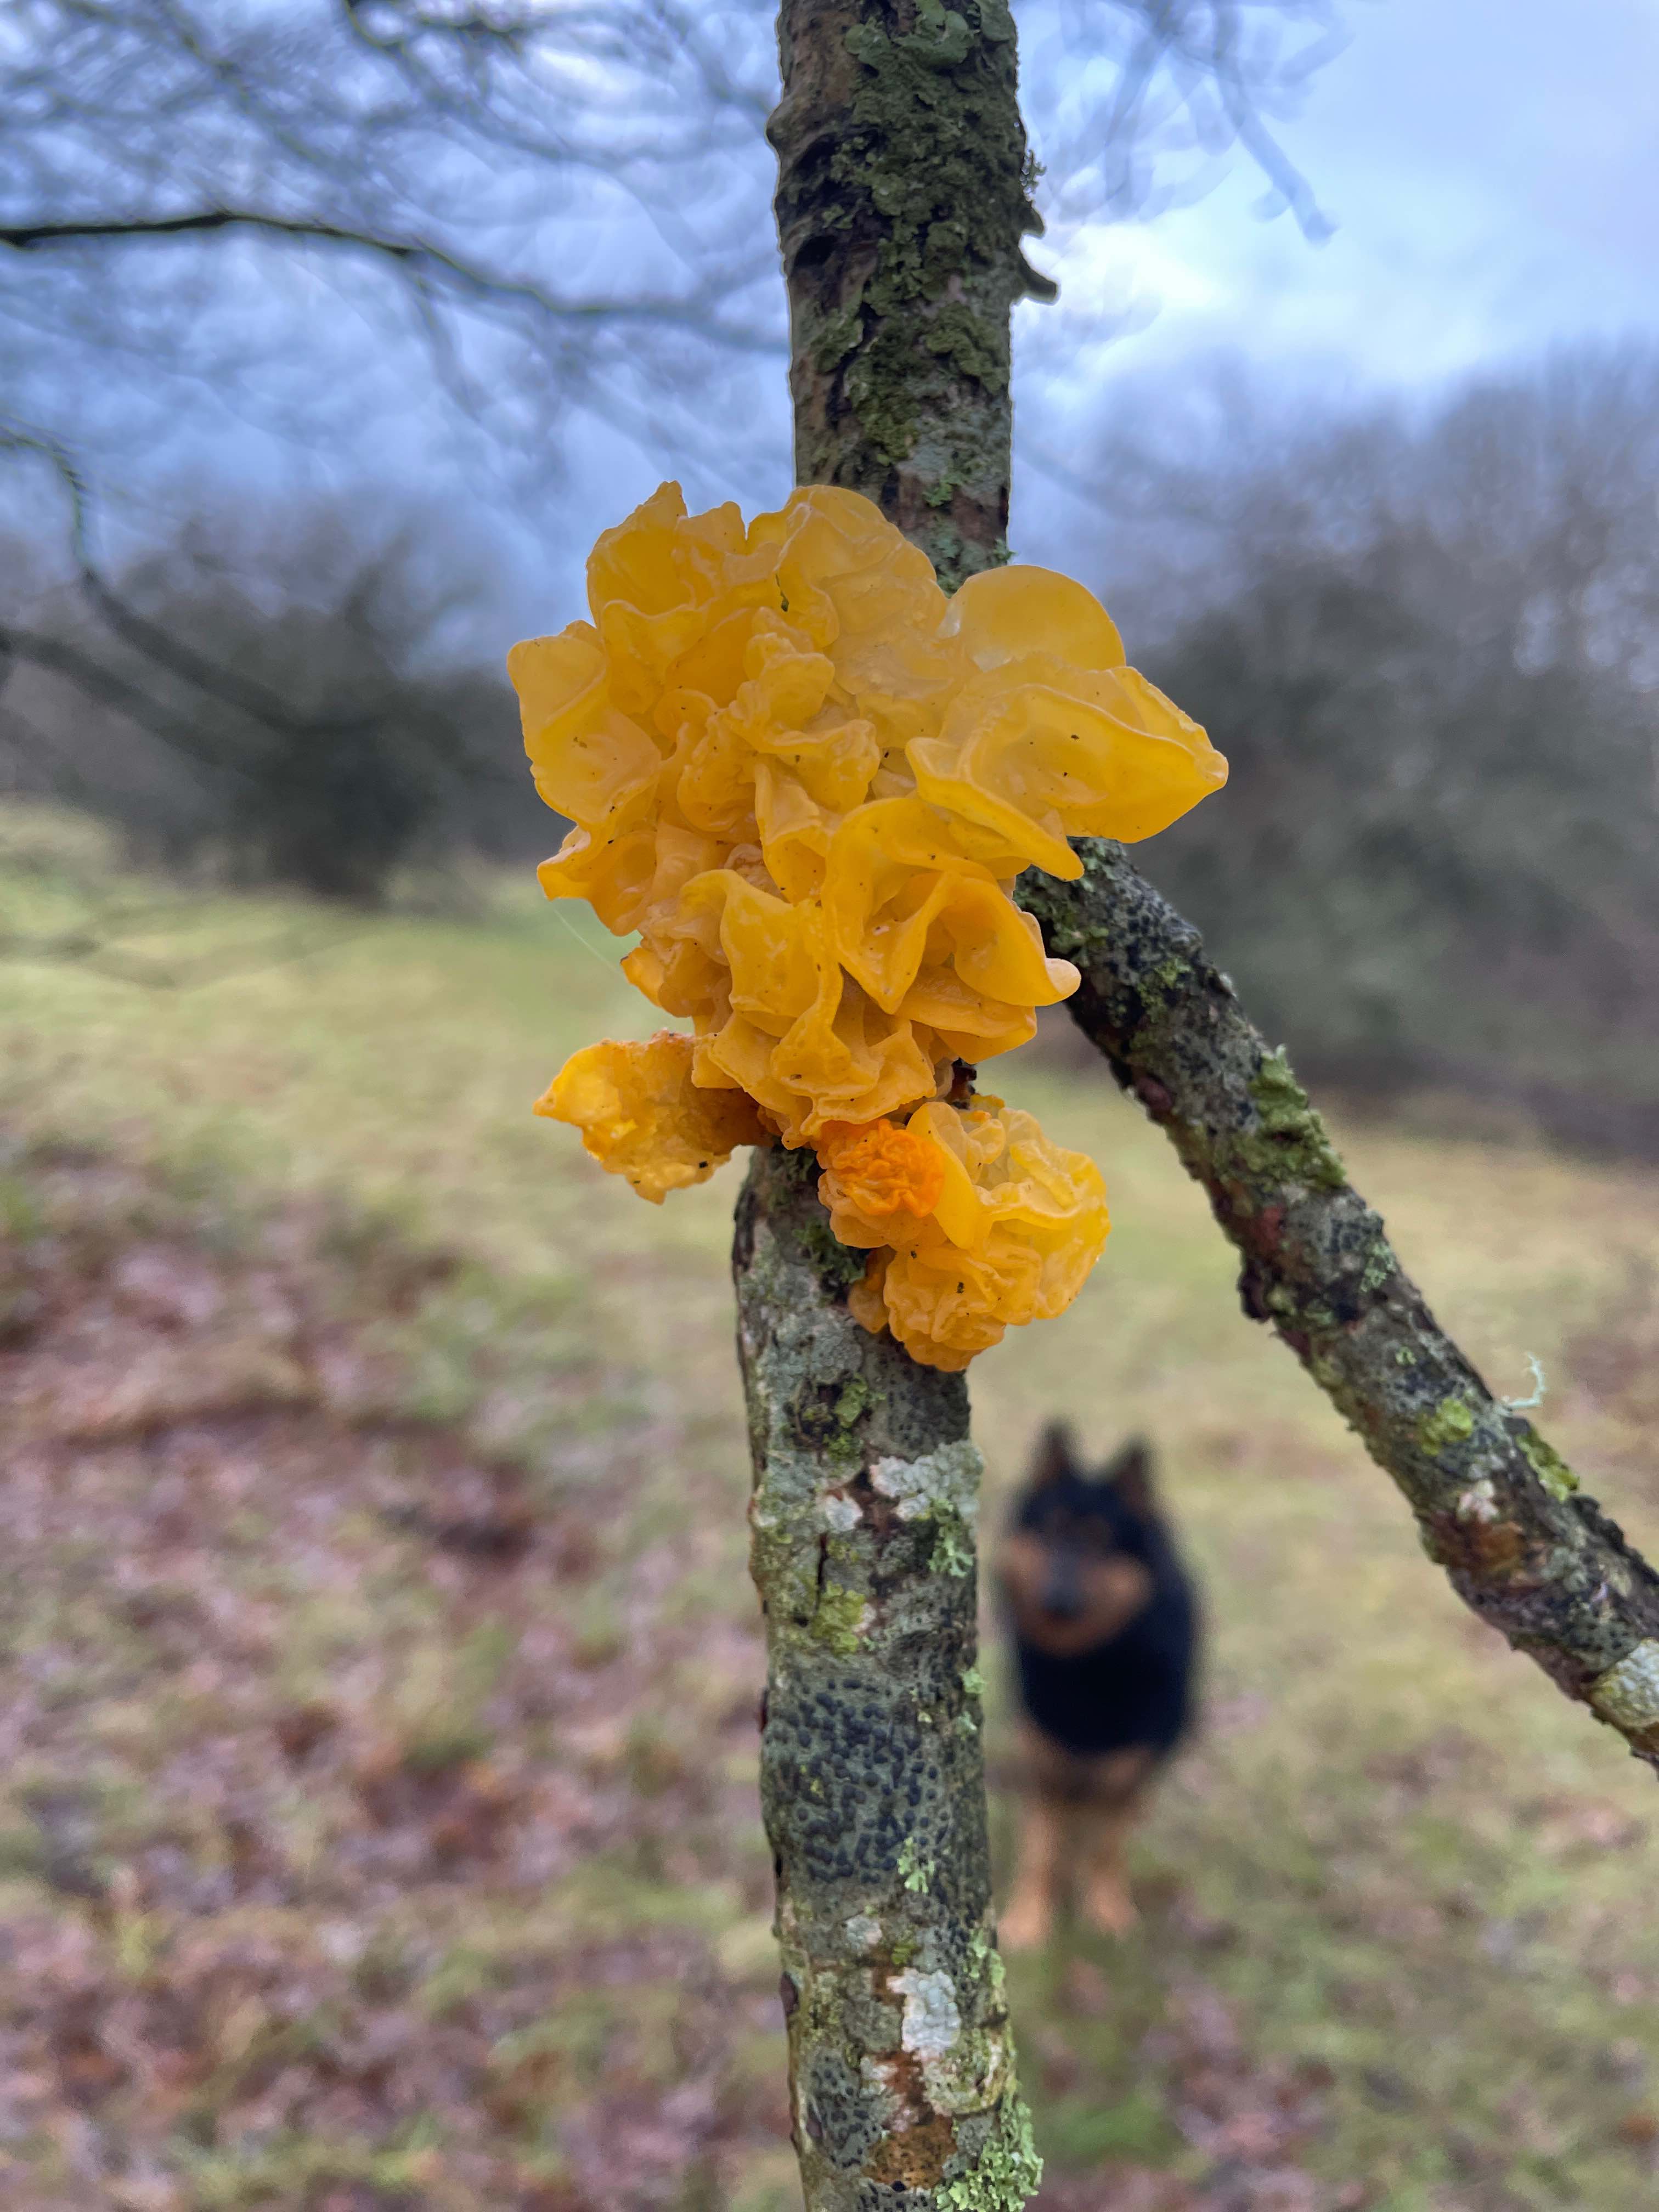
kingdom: Fungi
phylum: Basidiomycota
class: Tremellomycetes
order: Tremellales
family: Tremellaceae
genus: Tremella
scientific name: Tremella mesenterica
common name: gul bævresvamp
